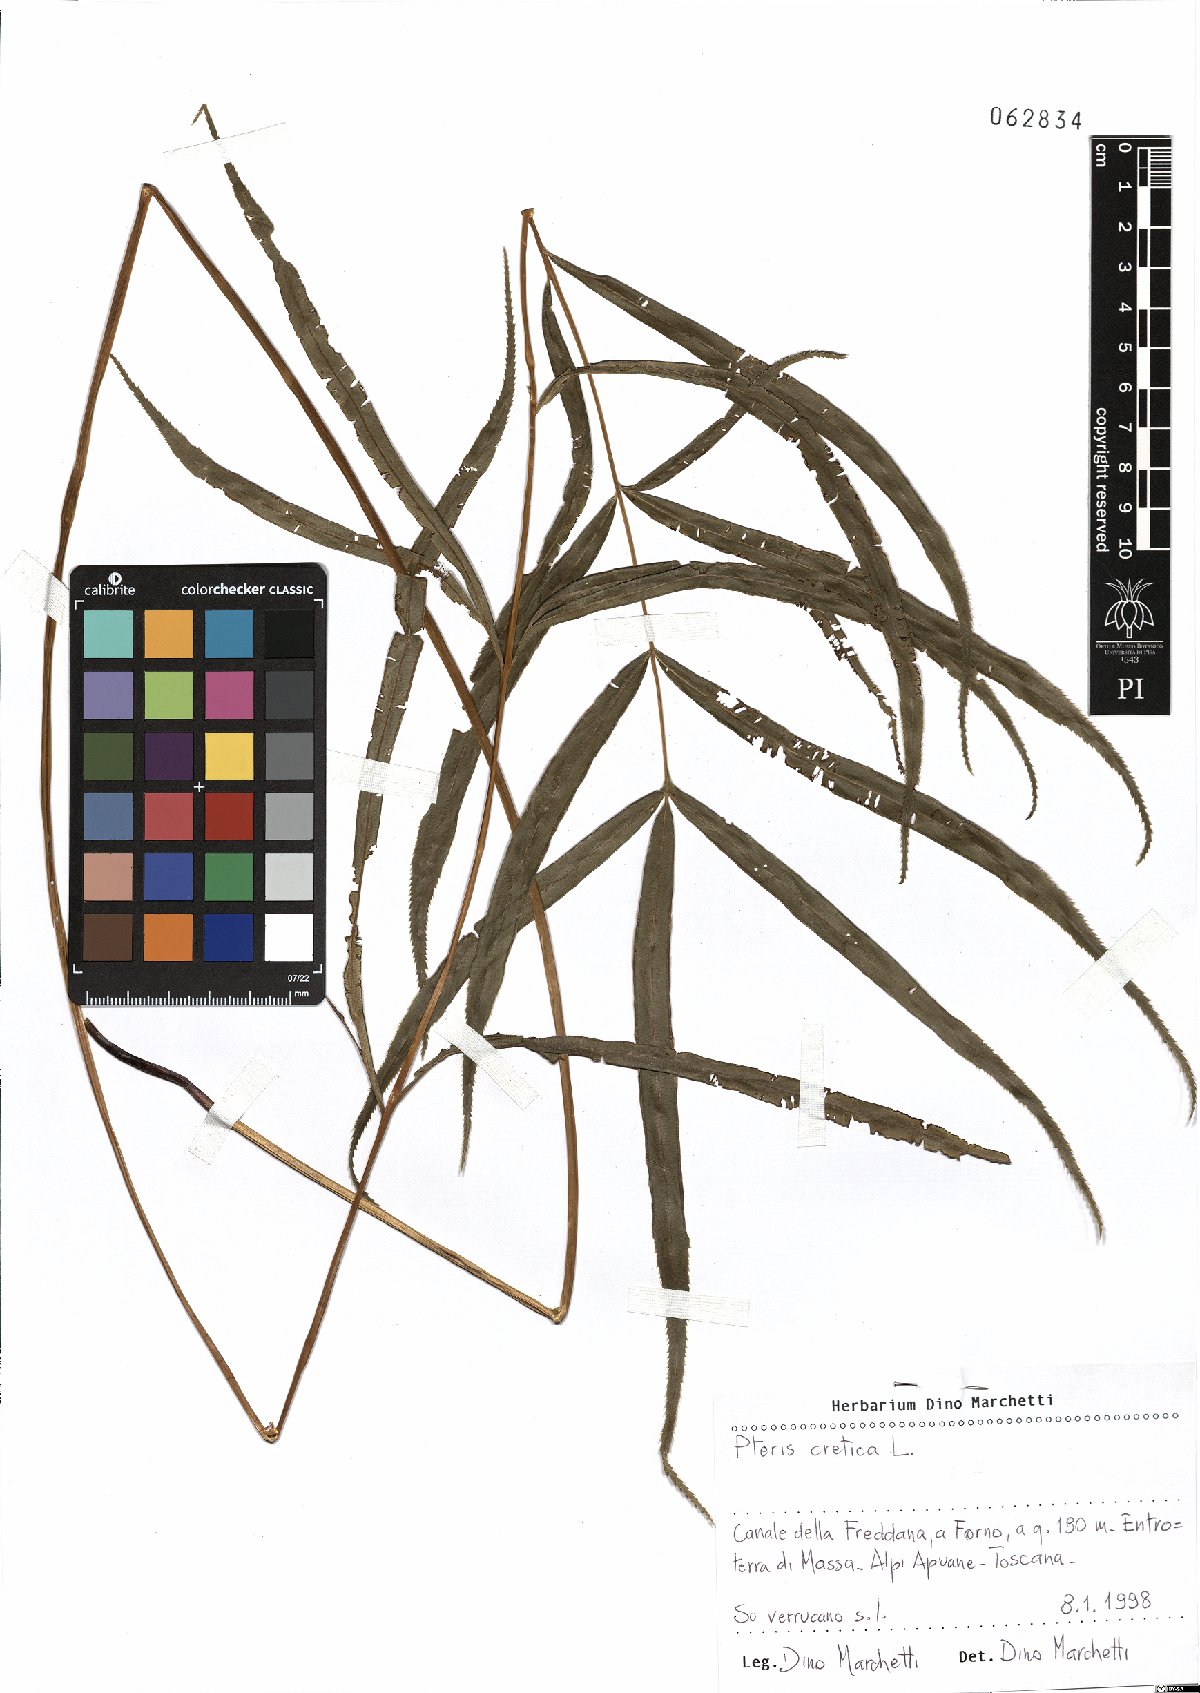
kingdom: Plantae
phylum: Tracheophyta
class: Polypodiopsida
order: Polypodiales
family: Pteridaceae
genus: Pteris
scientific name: Pteris cretica
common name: Ribbon fern
